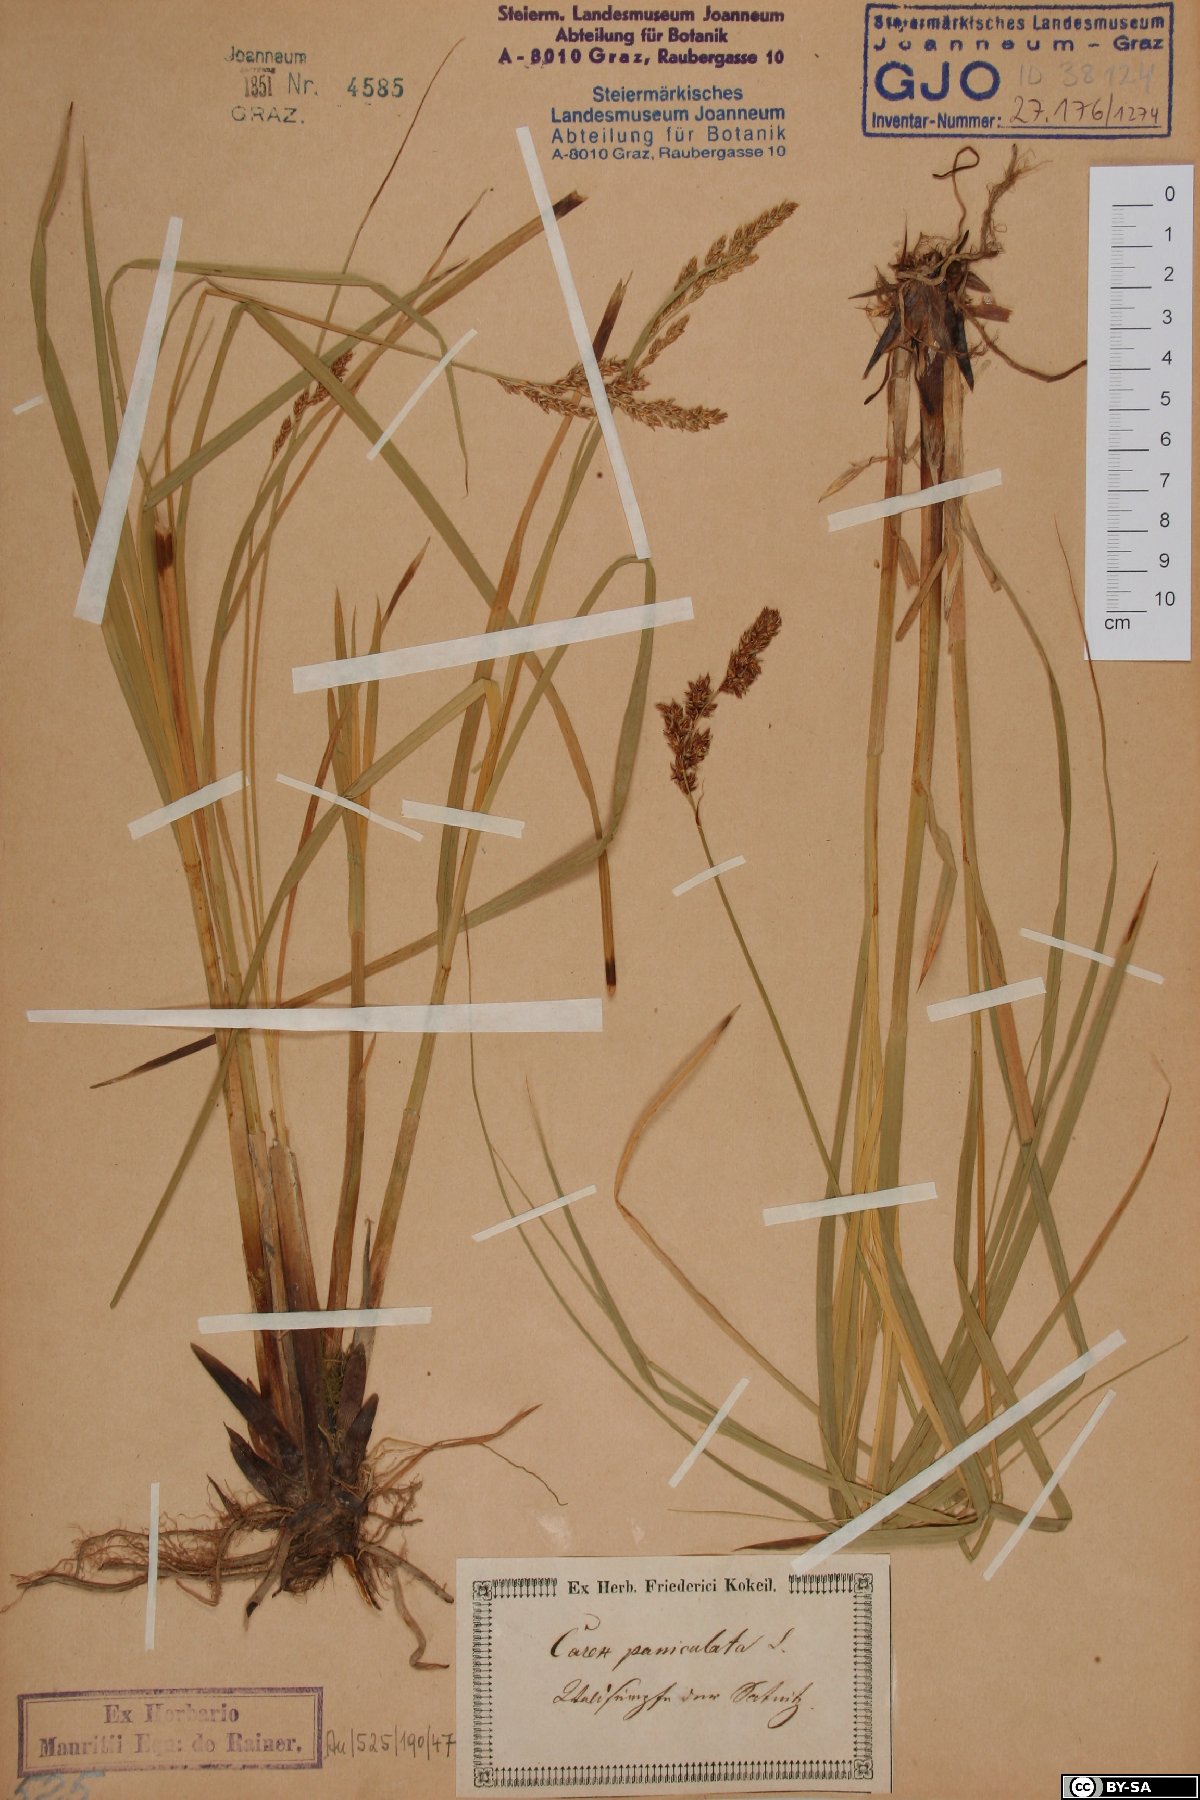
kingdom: Plantae
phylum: Tracheophyta
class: Liliopsida
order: Poales
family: Cyperaceae
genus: Carex
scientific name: Carex paniculata
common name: Greater tussock-sedge
